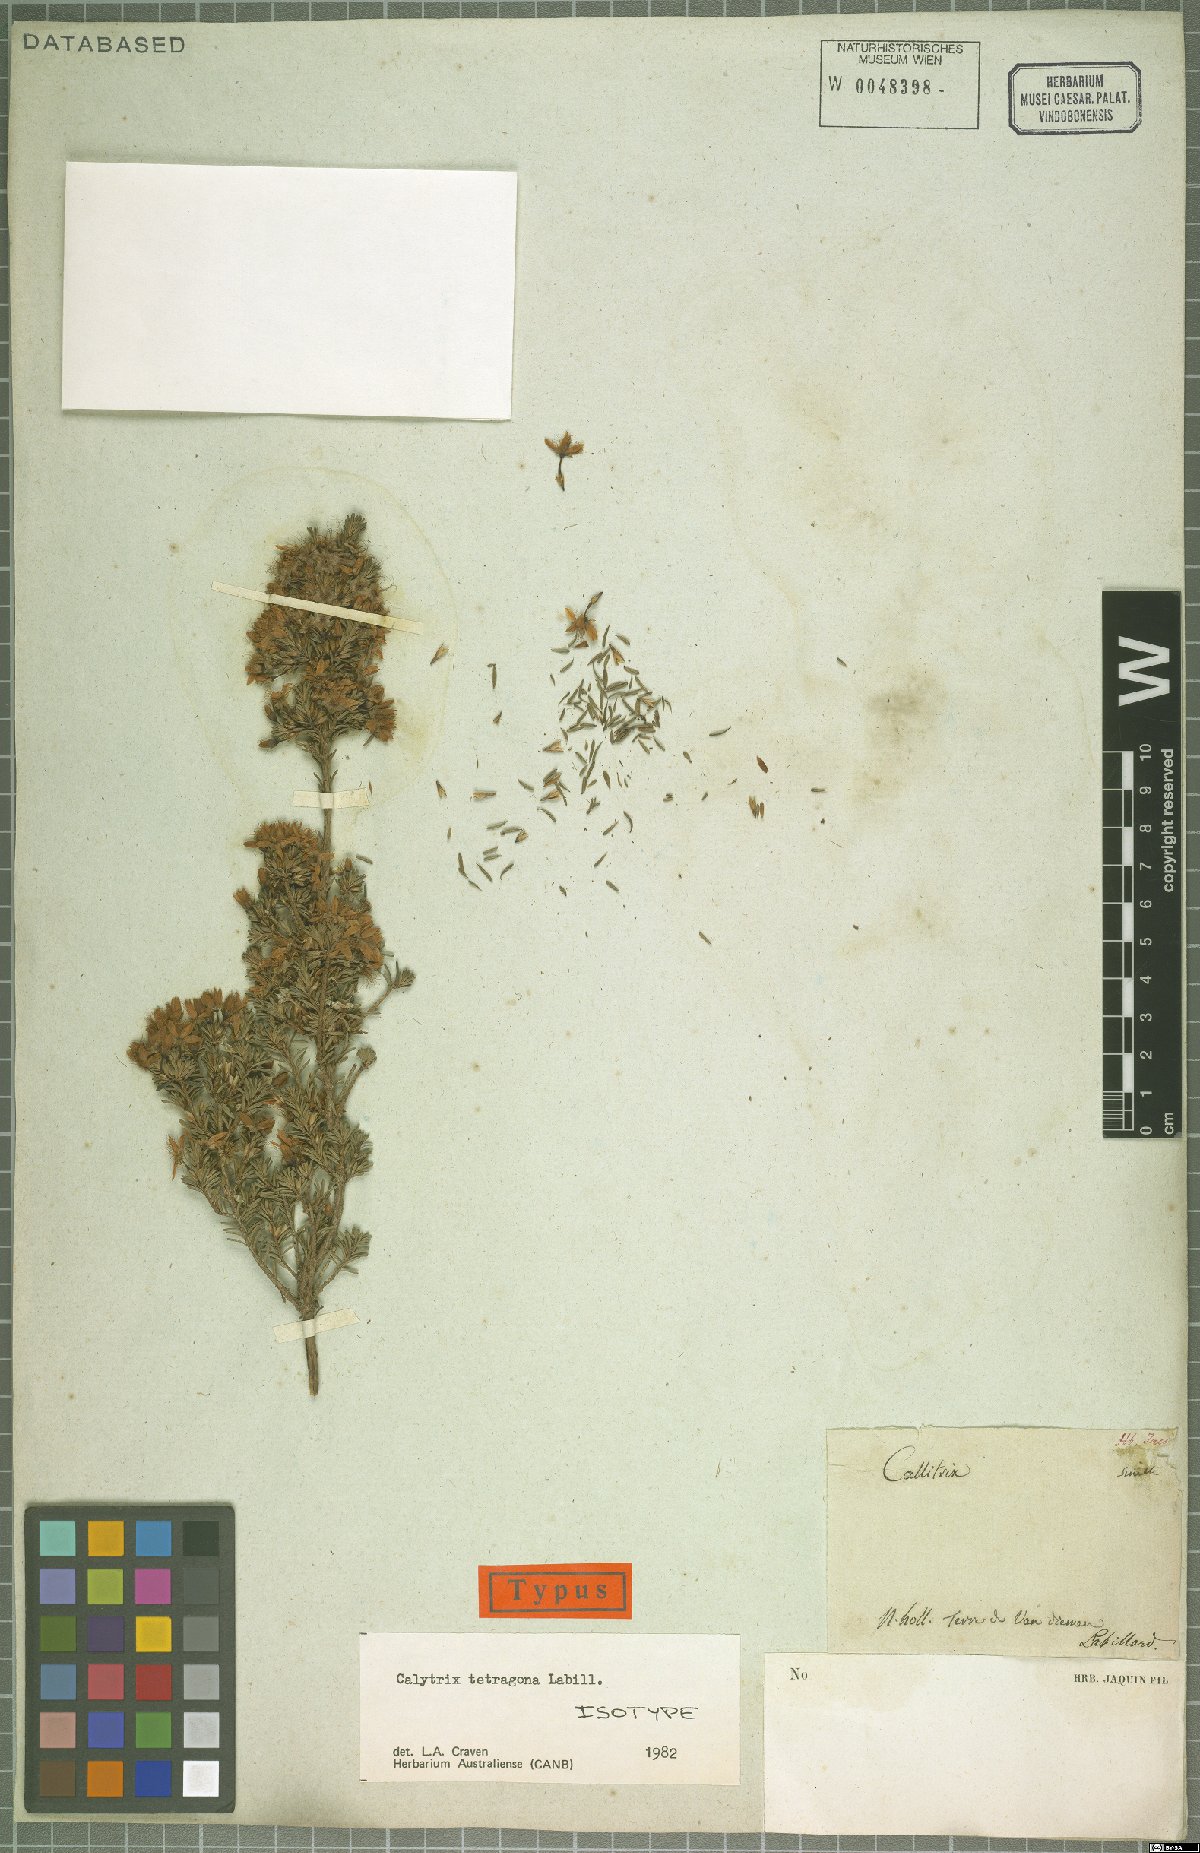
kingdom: Plantae
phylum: Tracheophyta
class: Magnoliopsida
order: Myrtales
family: Myrtaceae
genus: Calytrix
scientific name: Calytrix tetragona
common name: Common fringe myrtle
